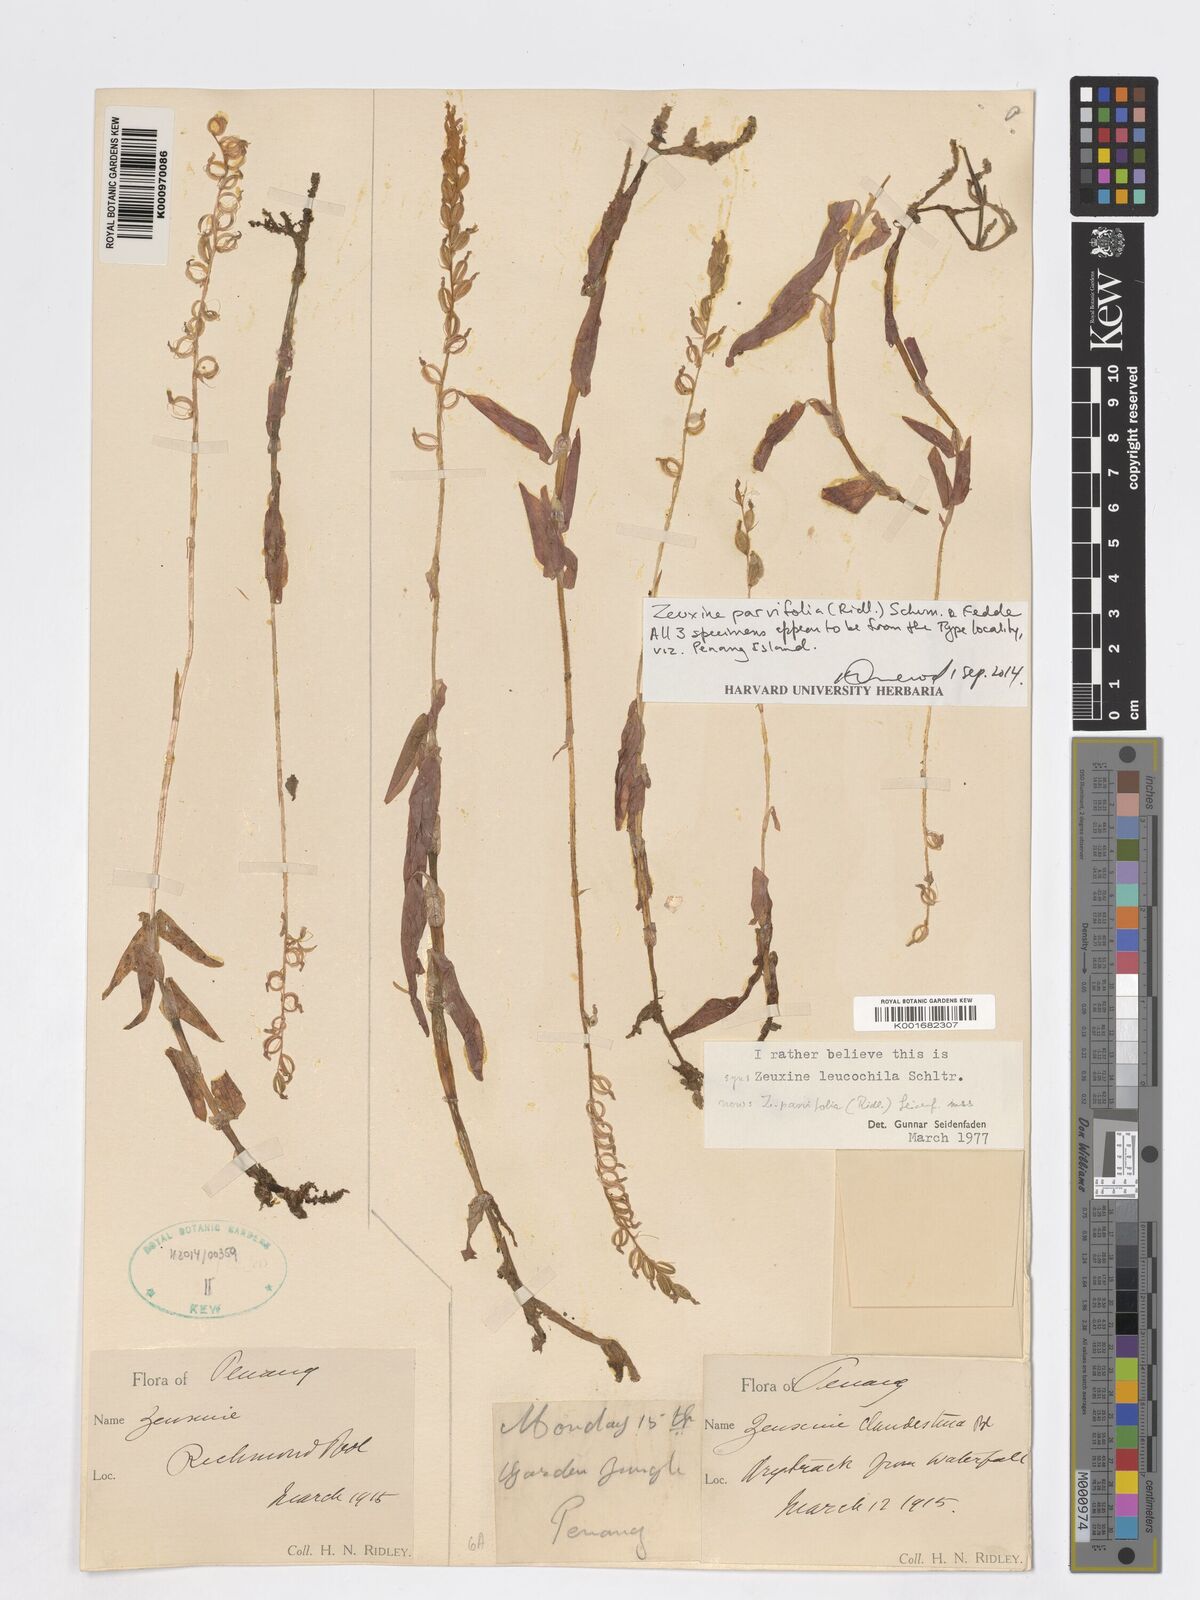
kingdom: Plantae
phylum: Tracheophyta
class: Liliopsida
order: Asparagales
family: Orchidaceae
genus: Zeuxine
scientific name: Zeuxine
